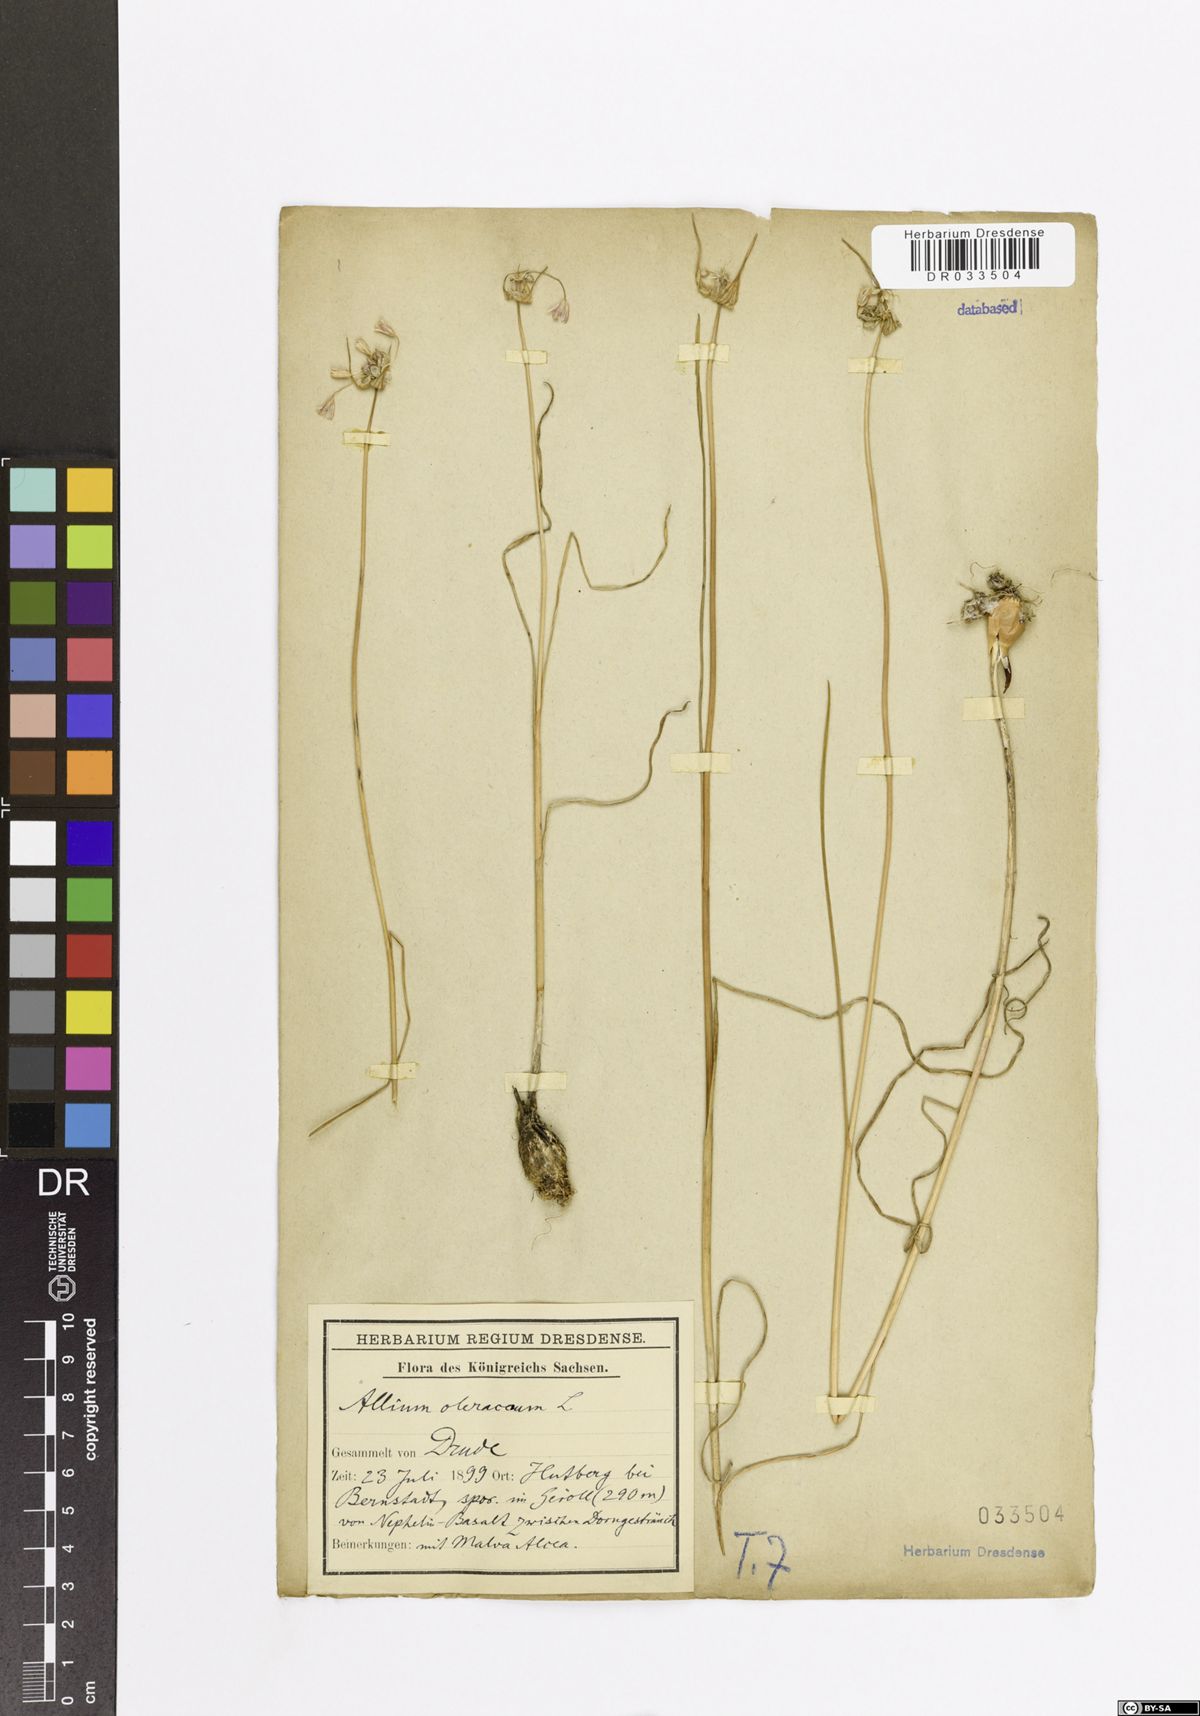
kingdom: Plantae
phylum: Tracheophyta
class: Liliopsida
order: Asparagales
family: Amaryllidaceae
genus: Allium
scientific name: Allium oleraceum
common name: Field garlic
